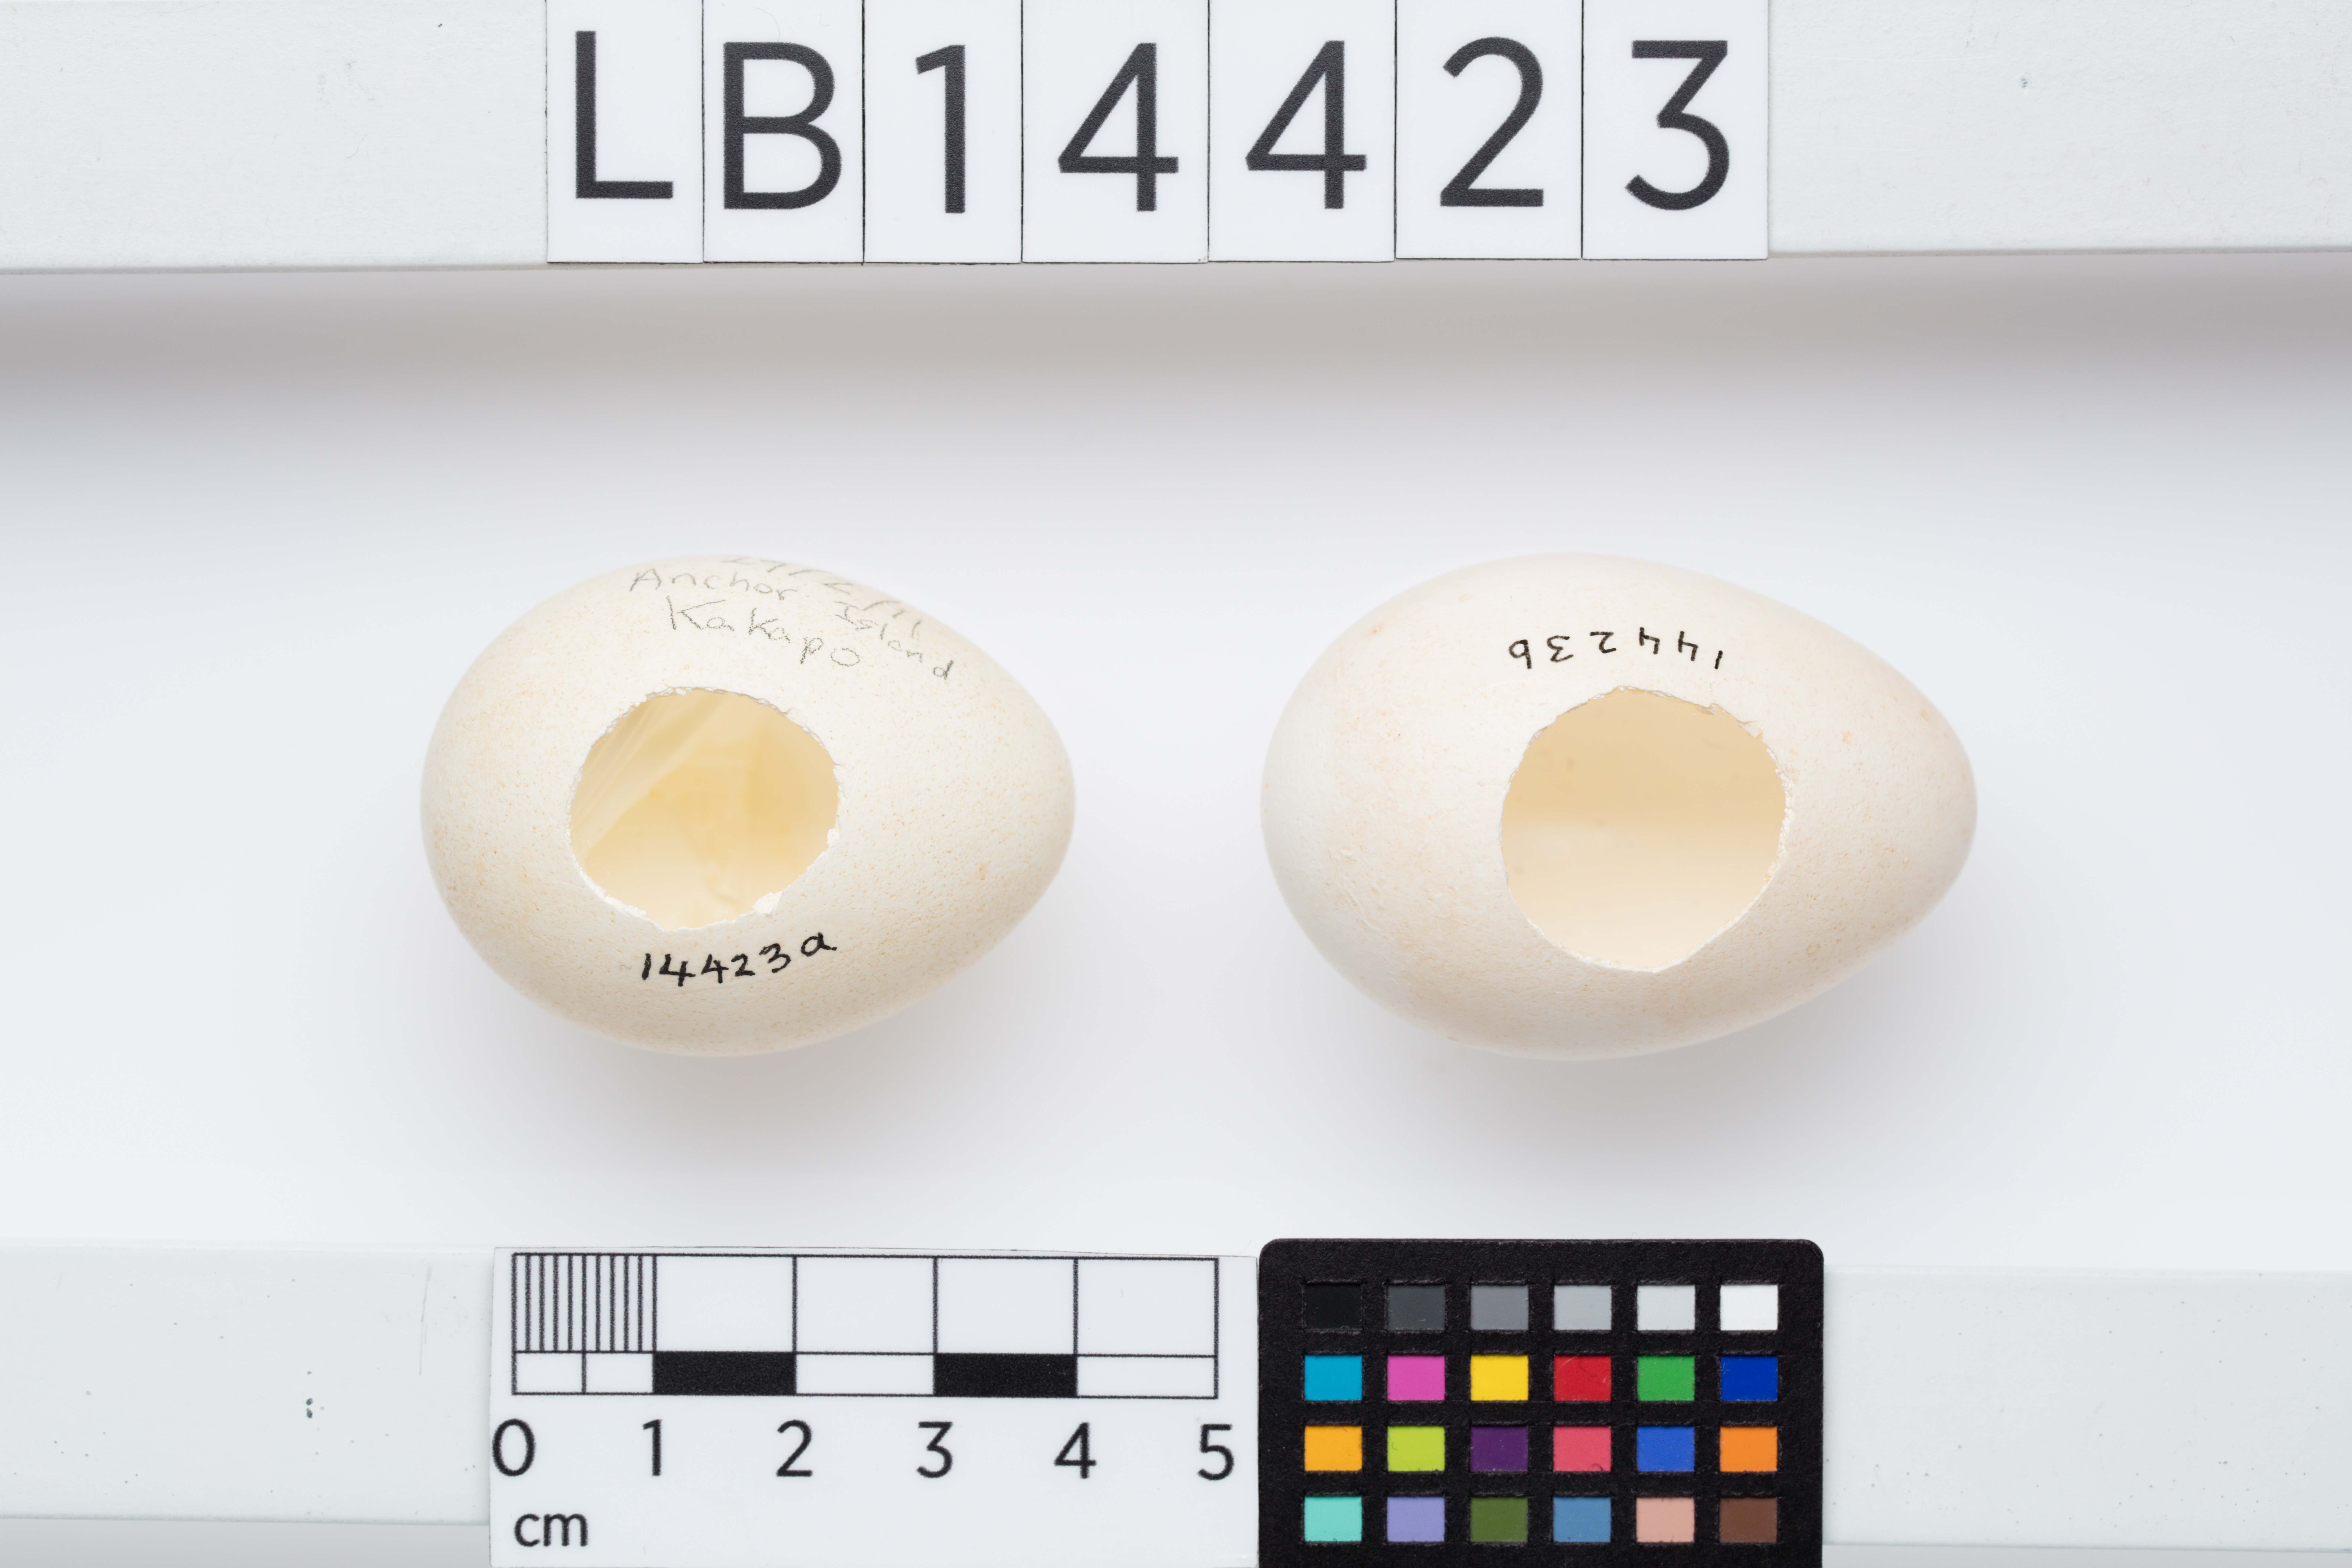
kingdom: Animalia
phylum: Chordata
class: Aves
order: Psittaciformes
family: Psittacidae
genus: Strigops
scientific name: Strigops habroptila
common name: Kakapo
